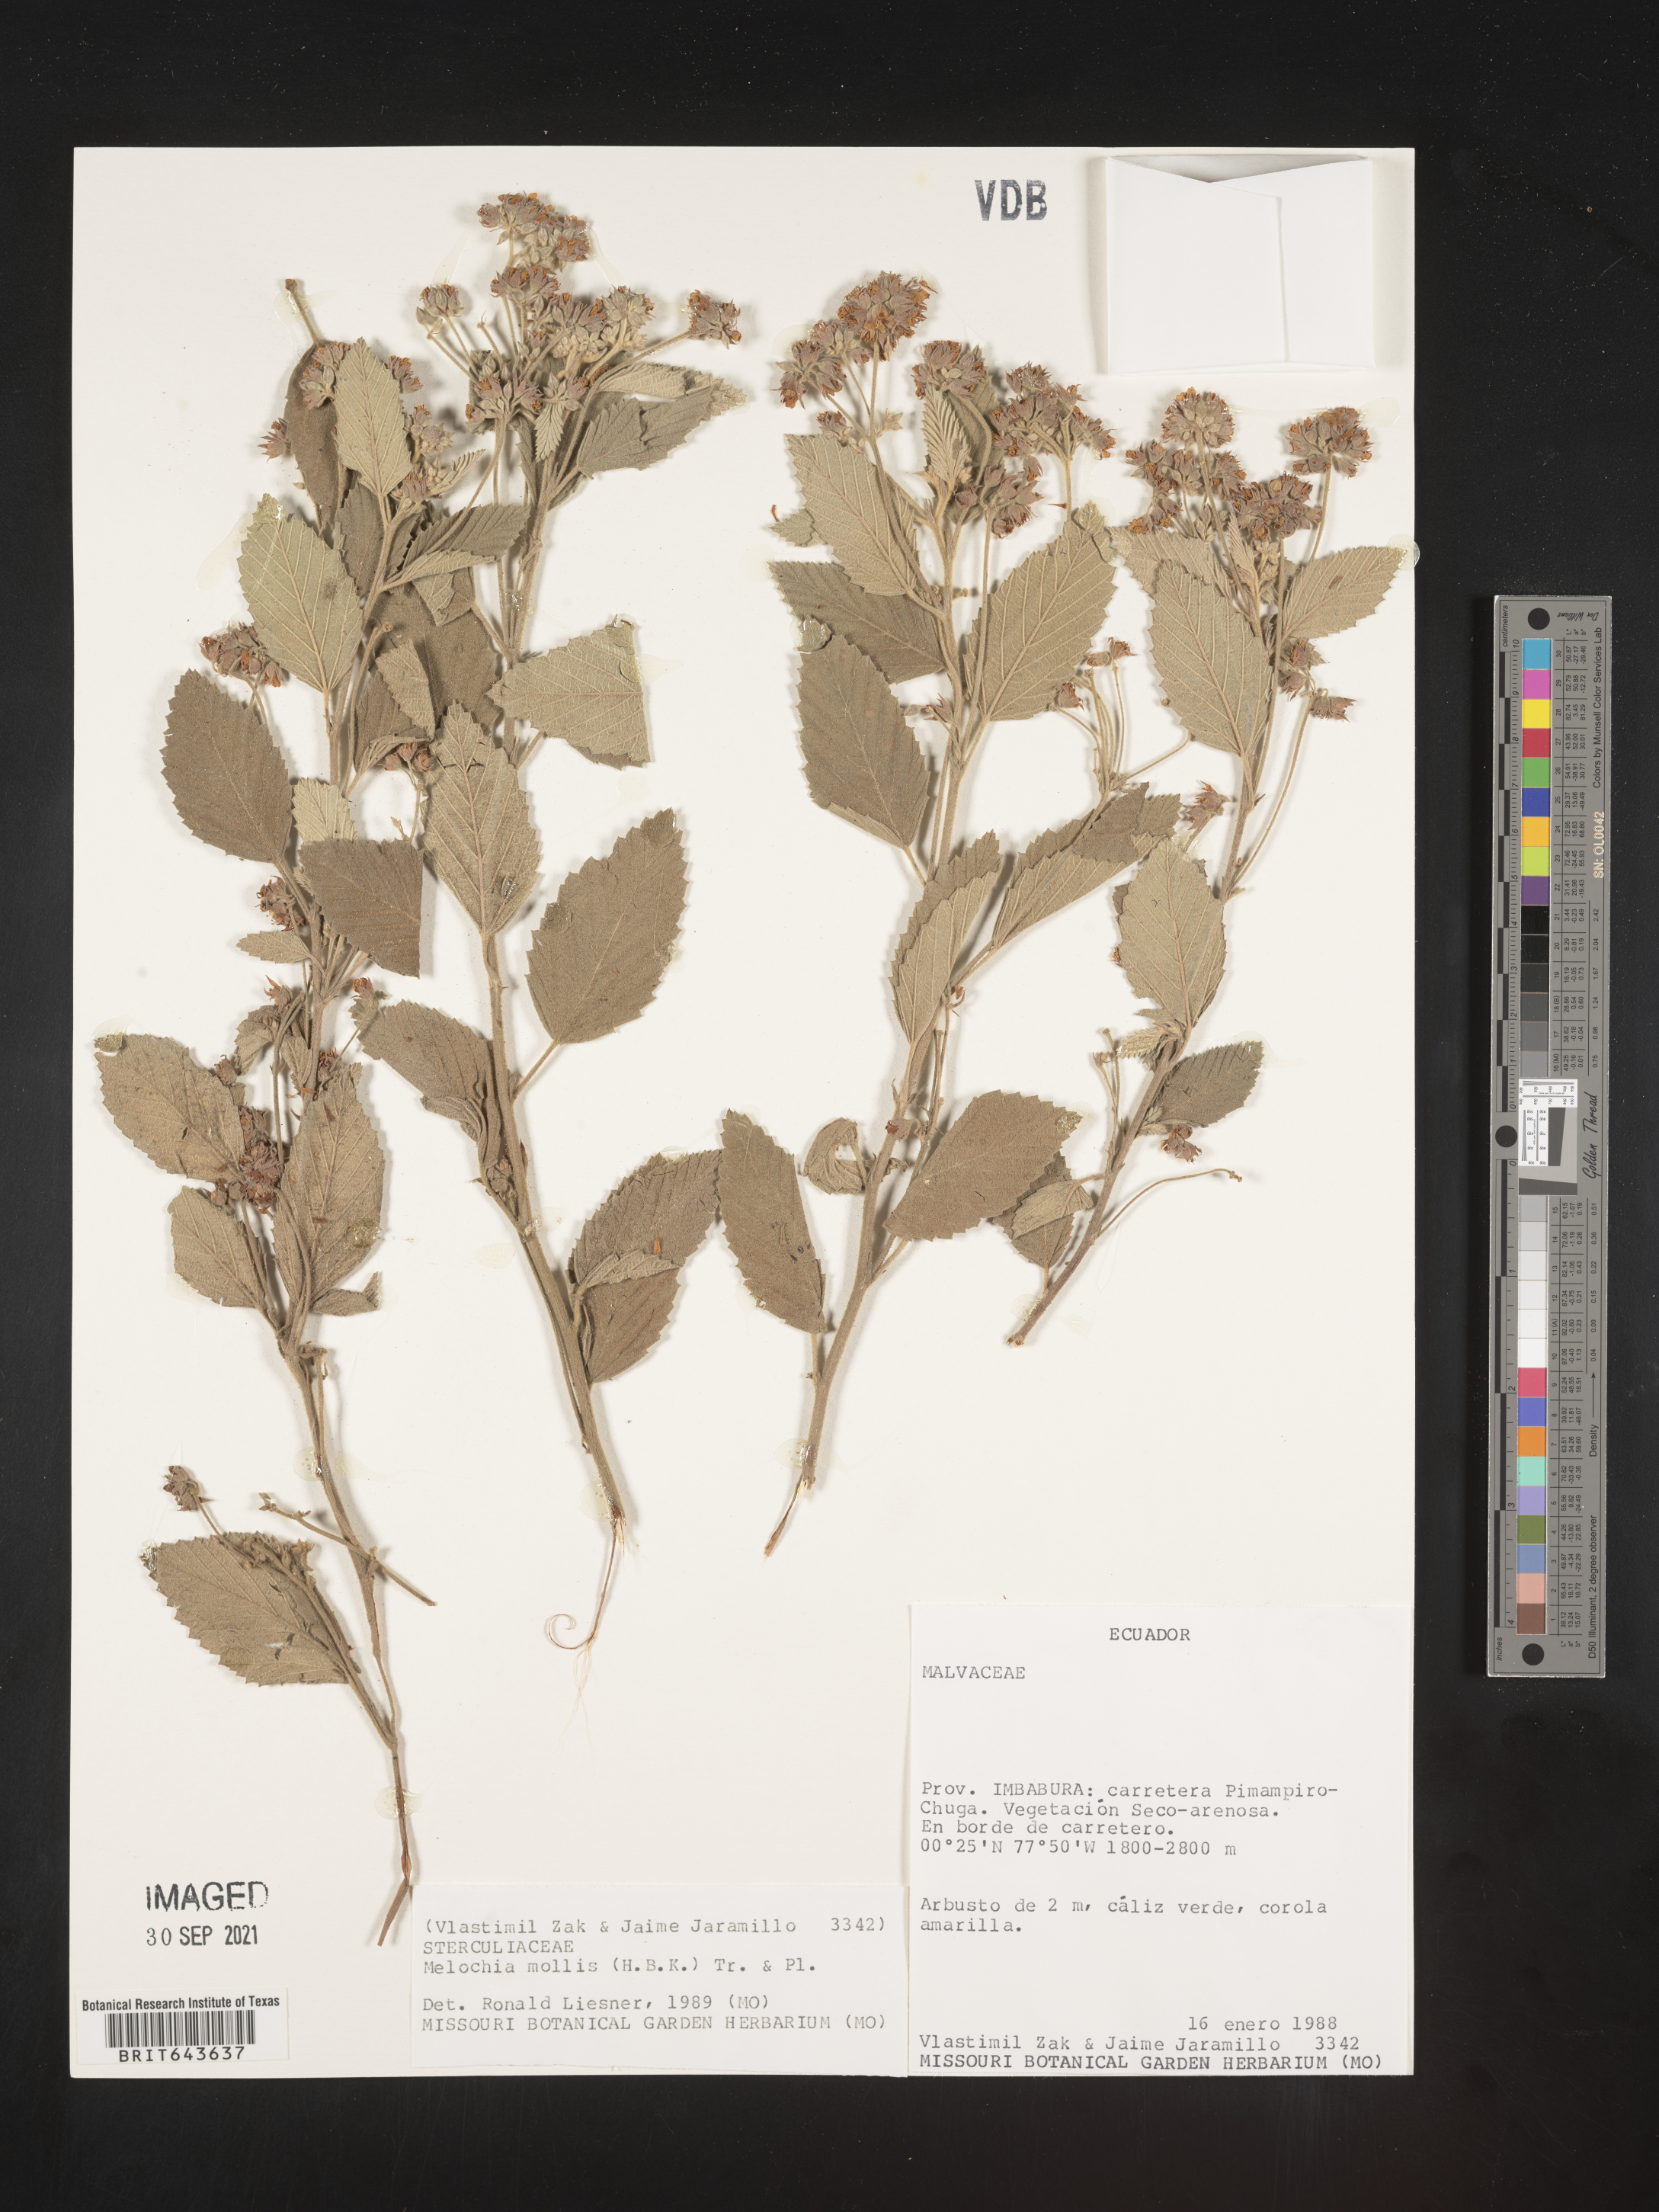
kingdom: Plantae
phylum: Tracheophyta
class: Magnoliopsida
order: Malvales
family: Malvaceae
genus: Melochia
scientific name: Melochia
